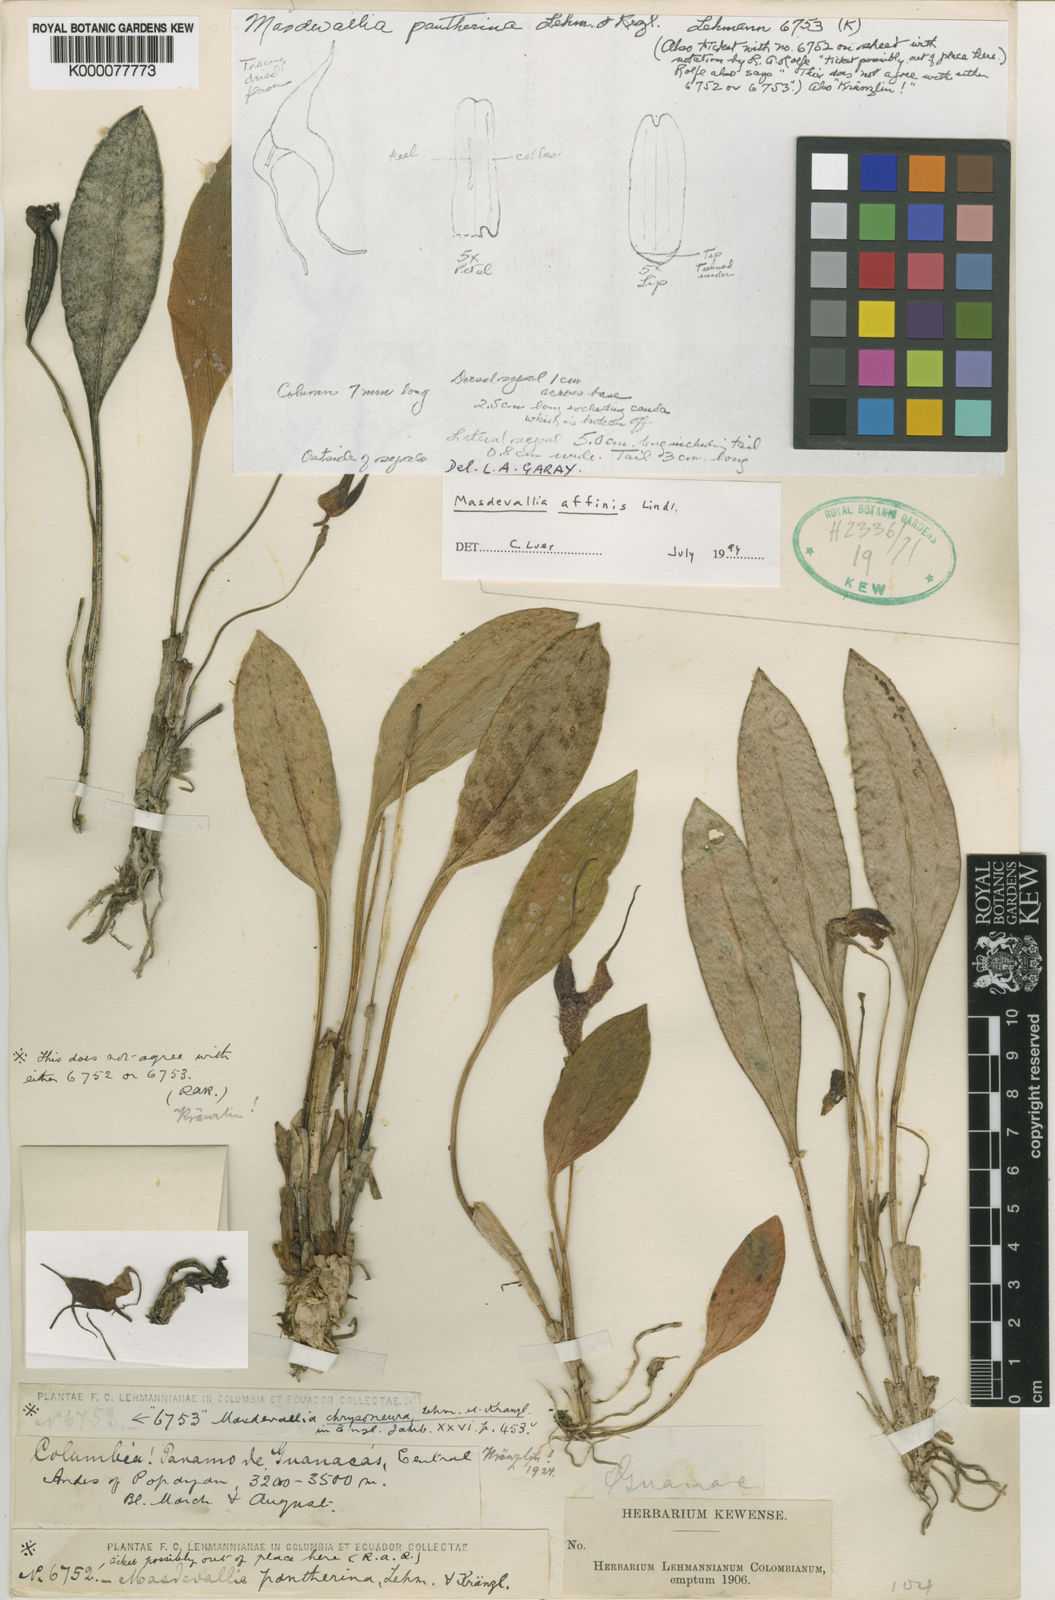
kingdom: Plantae
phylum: Tracheophyta
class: Liliopsida
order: Asparagales
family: Orchidaceae
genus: Masdevallia
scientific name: Masdevallia laevis
